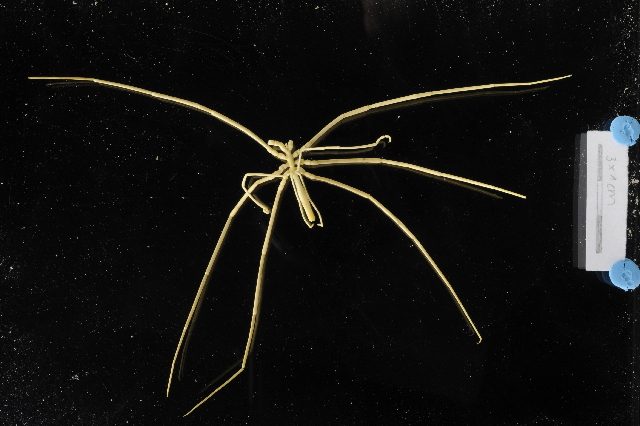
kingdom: Animalia
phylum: Arthropoda
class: Pycnogonida
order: Pantopoda
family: Colossendeidae
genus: Colossendeis
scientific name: Colossendeis megalonyx
